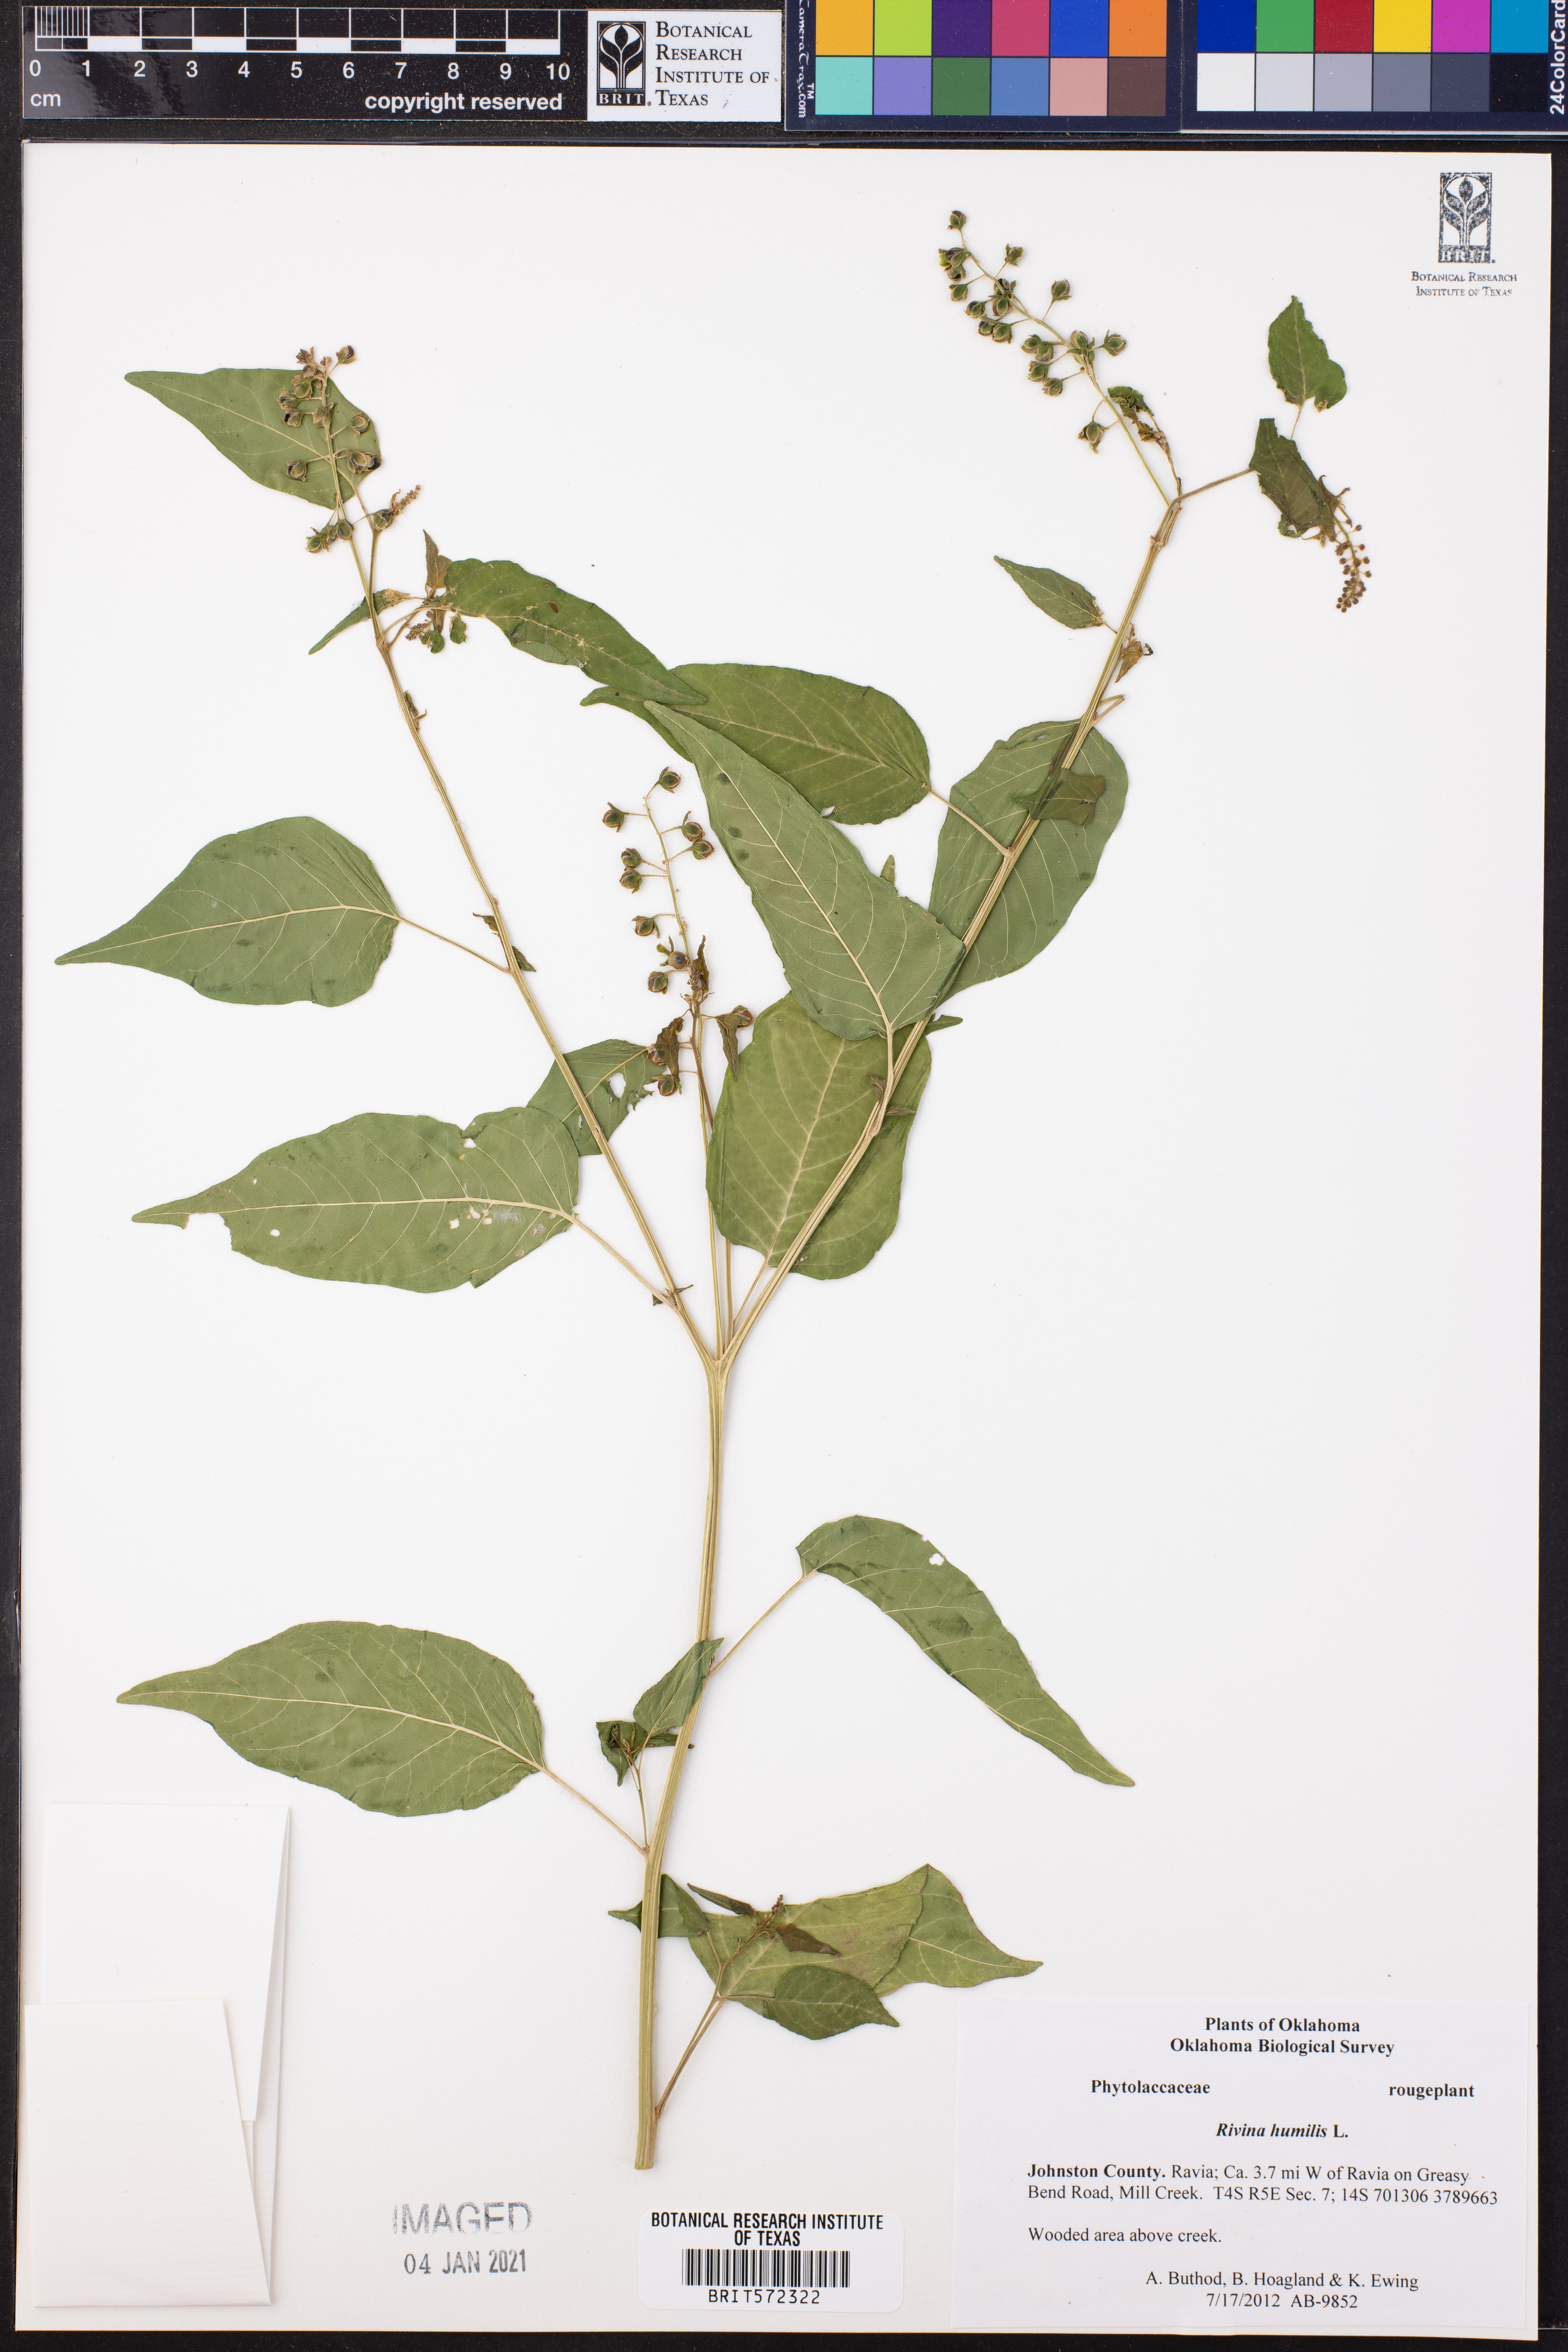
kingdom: Plantae
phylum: Tracheophyta
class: Magnoliopsida
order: Caryophyllales
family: Phytolaccaceae
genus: Rivina
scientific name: Rivina humilis
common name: Rougeplant
